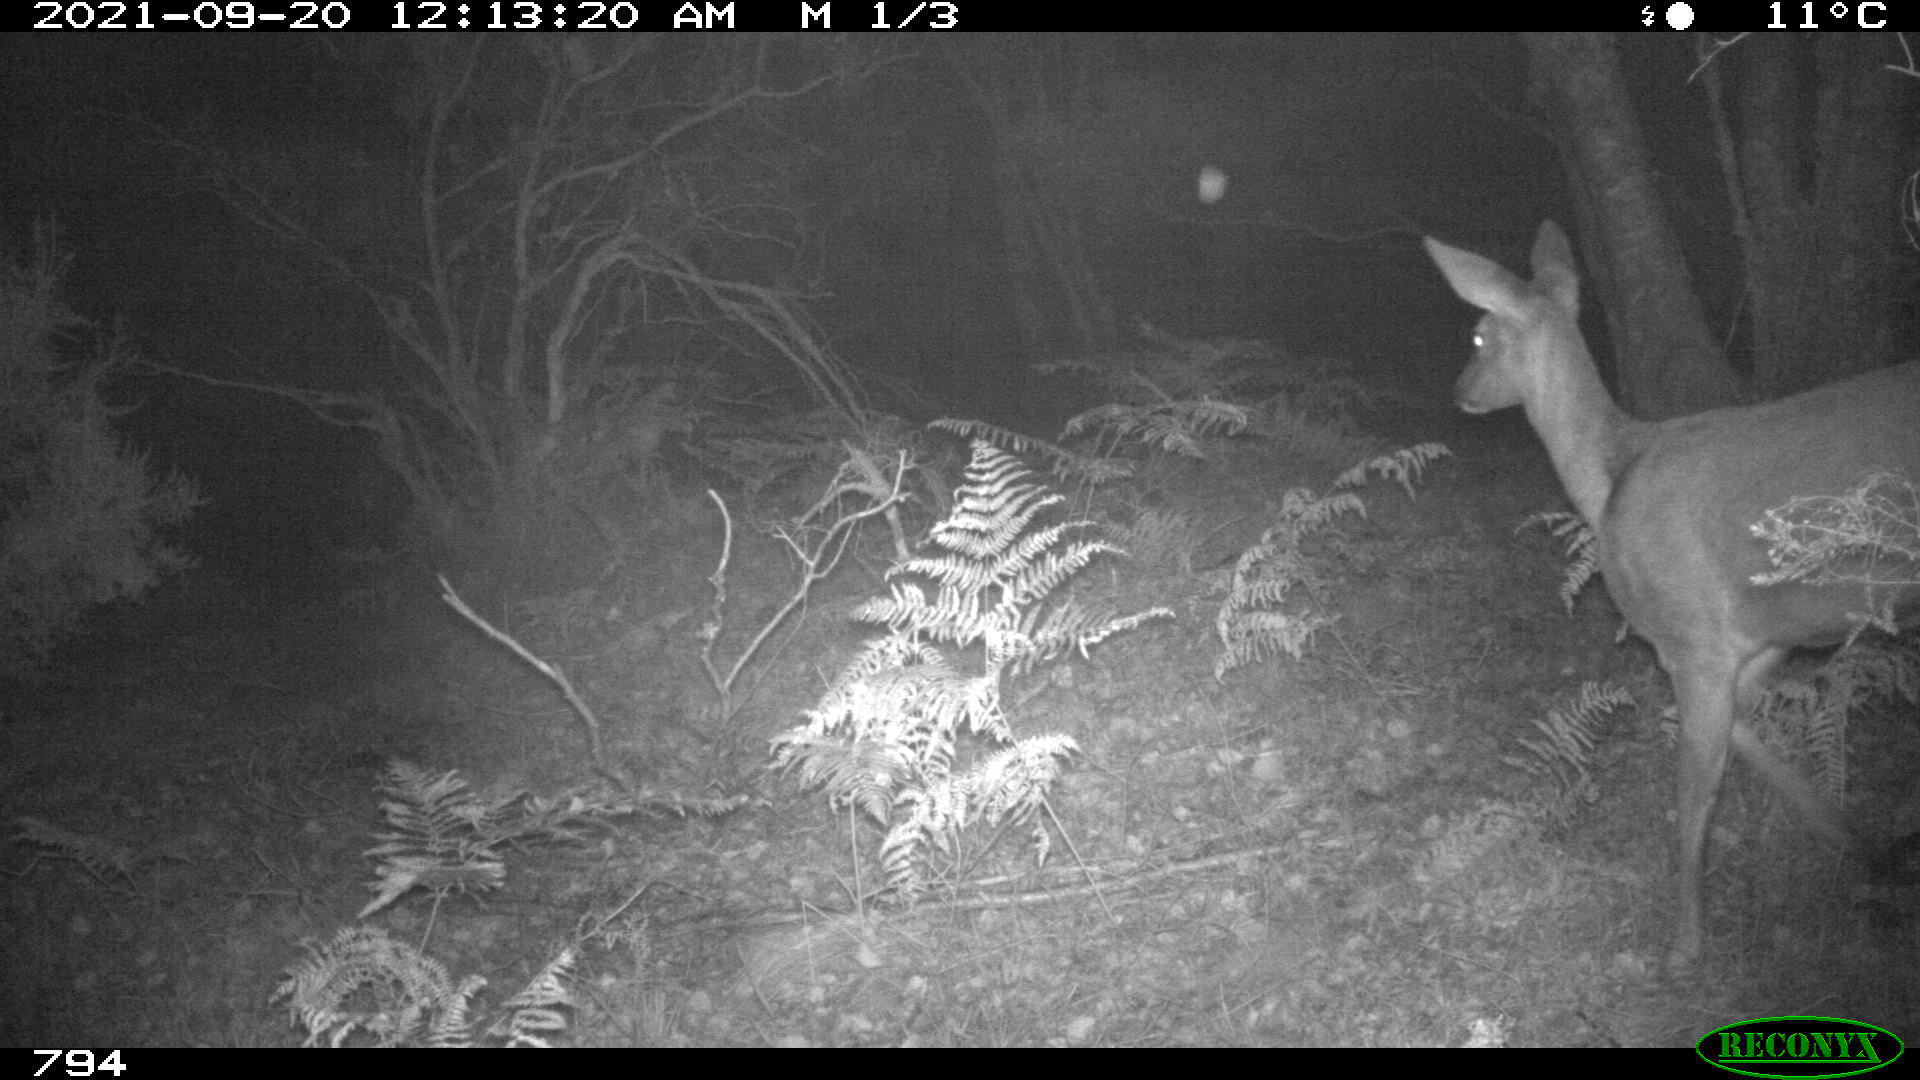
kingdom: Animalia
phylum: Chordata
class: Mammalia
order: Artiodactyla
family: Cervidae
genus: Capreolus
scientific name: Capreolus capreolus
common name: Western roe deer
